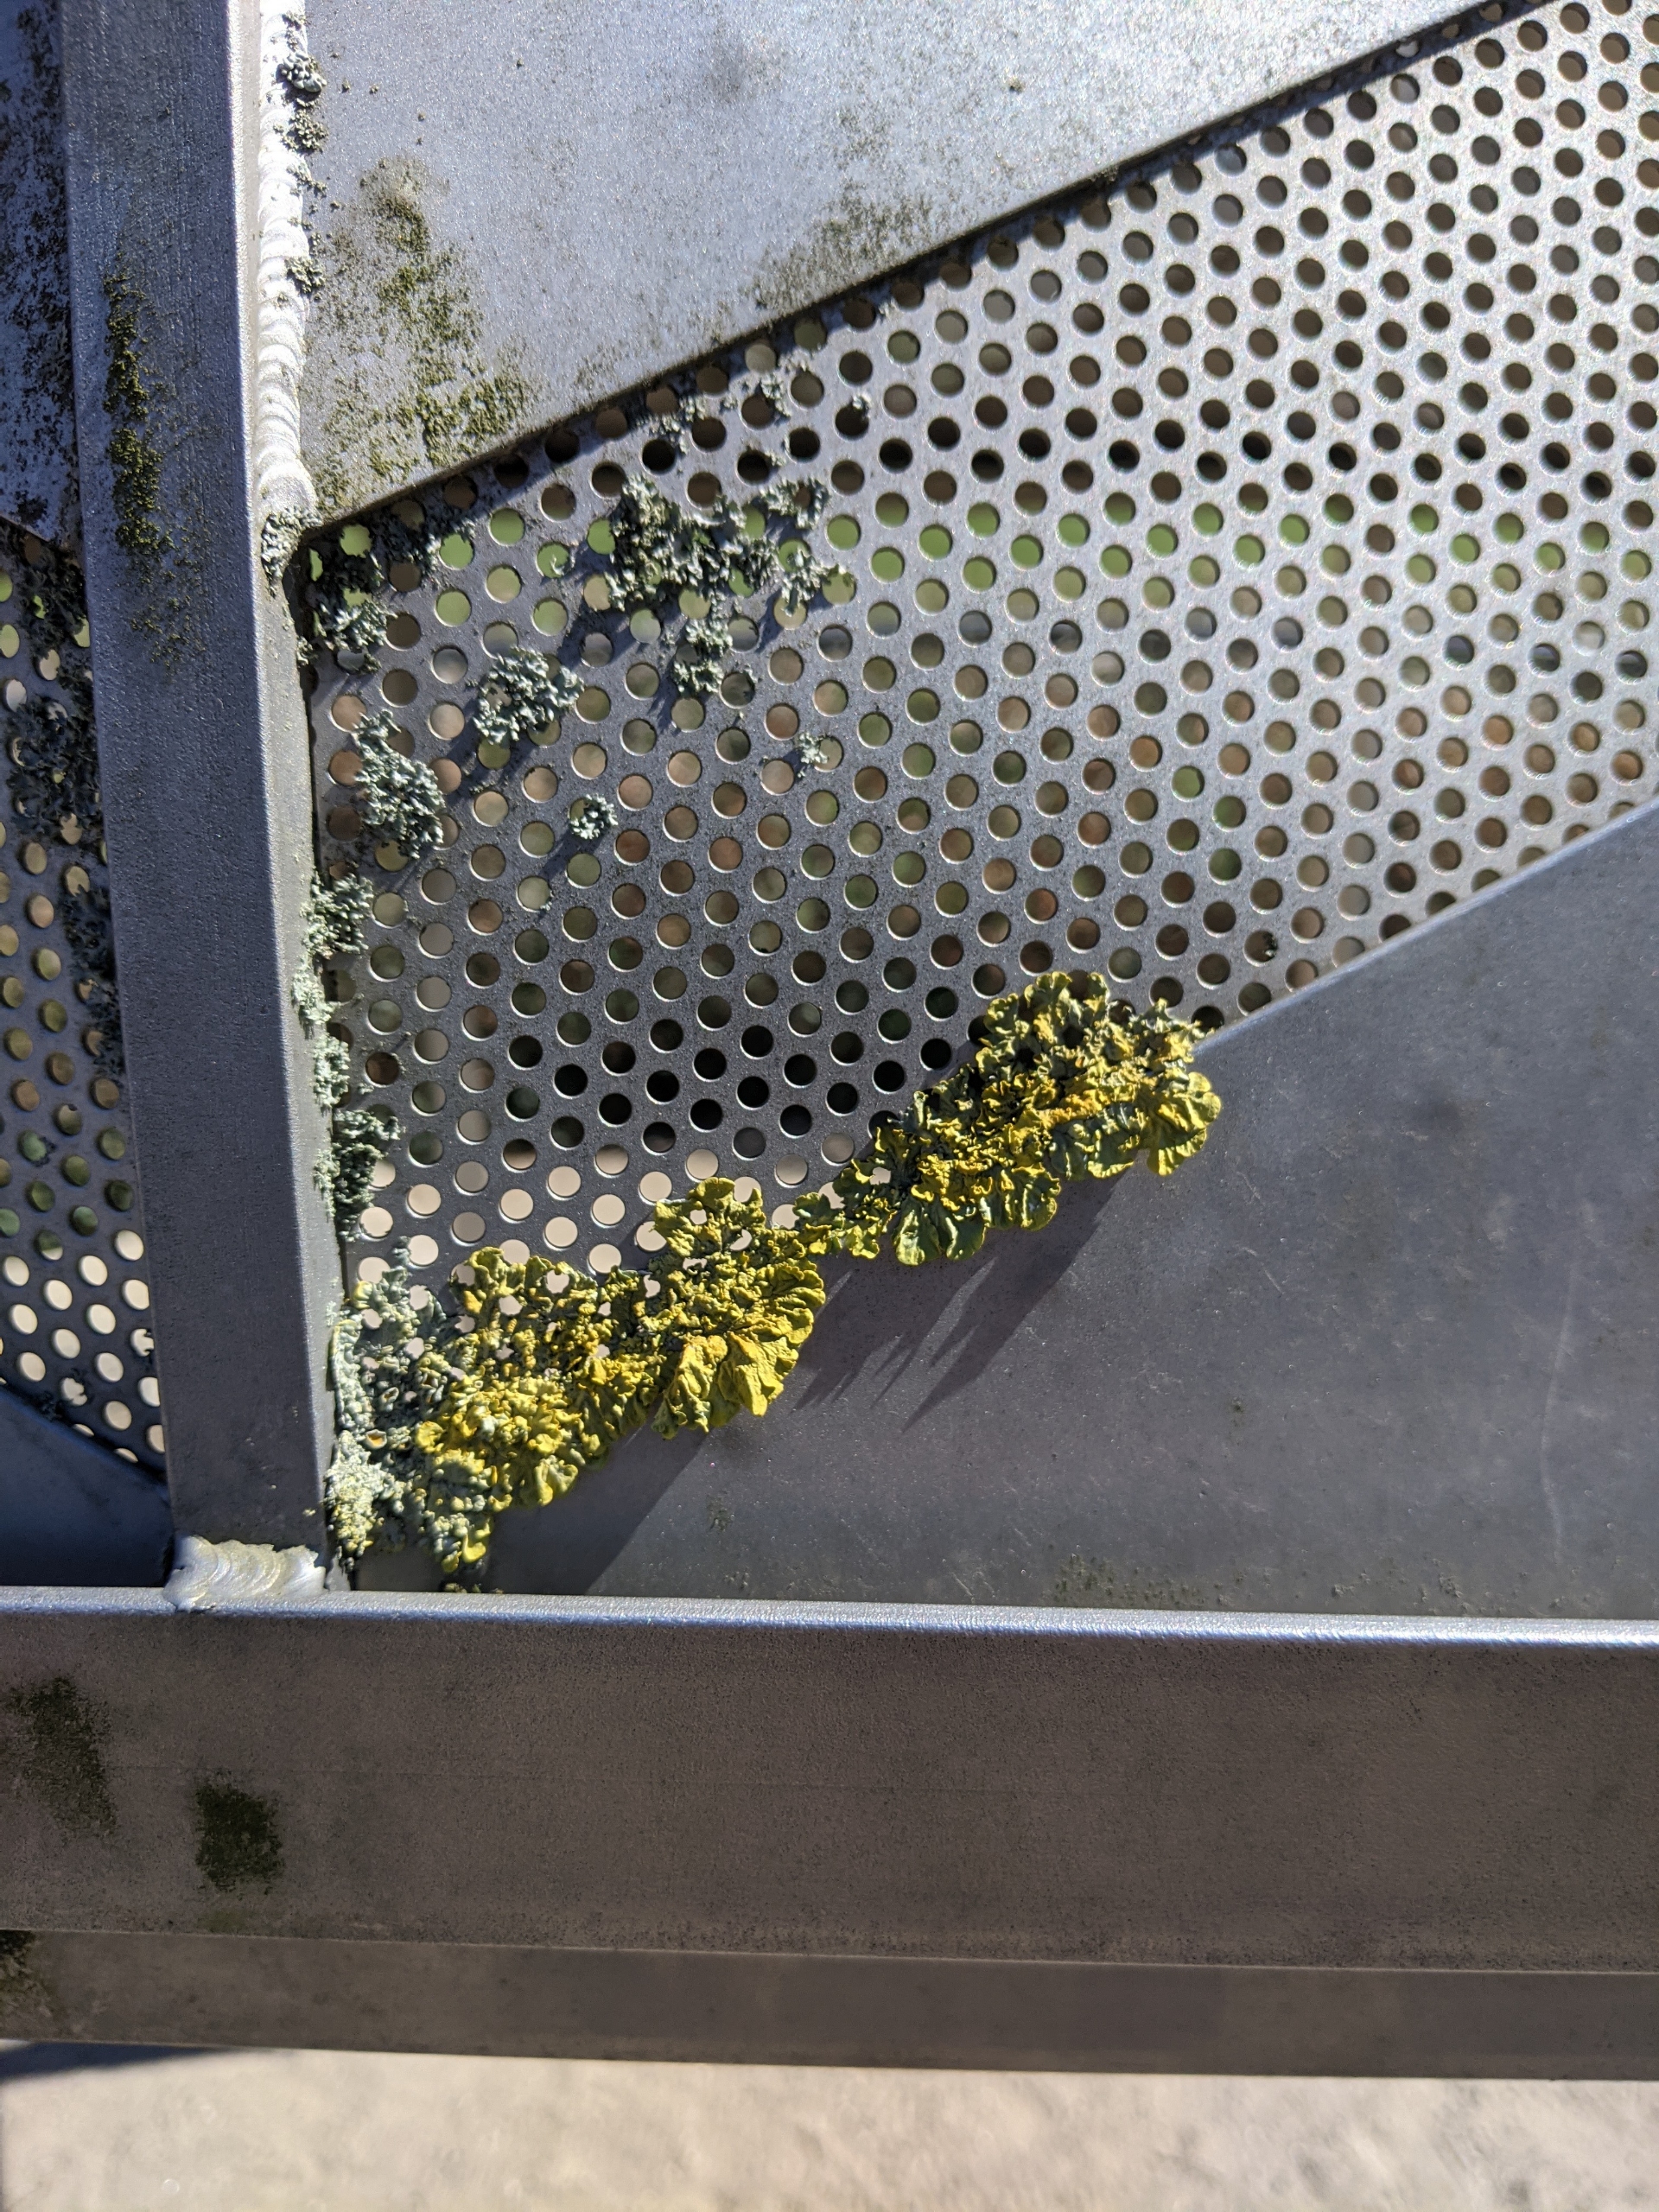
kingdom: Fungi
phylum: Ascomycota
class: Lecanoromycetes
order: Teloschistales
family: Teloschistaceae
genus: Xanthoria
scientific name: Xanthoria parietina
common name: Almindelig væggelav
